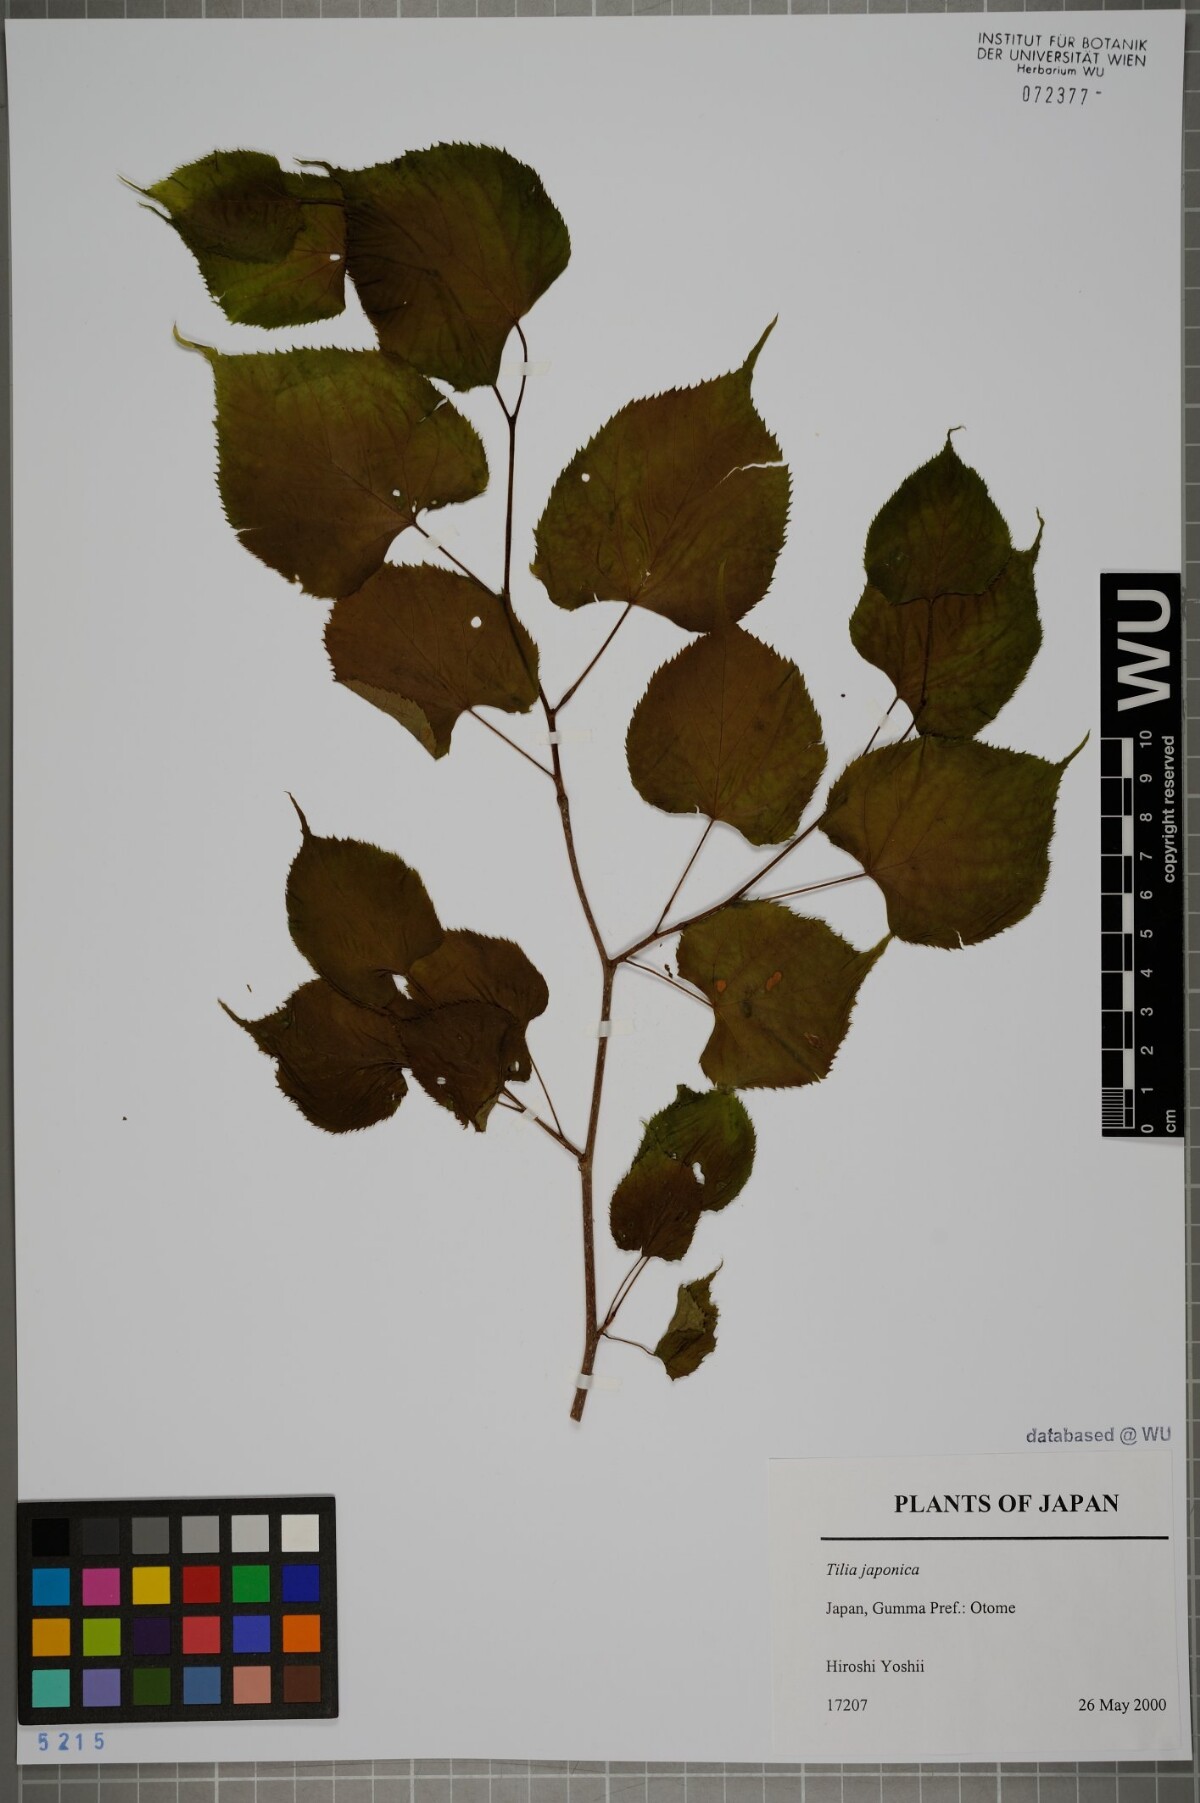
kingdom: Plantae
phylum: Tracheophyta
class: Magnoliopsida
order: Malvales
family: Malvaceae
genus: Tilia
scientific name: Tilia japonica
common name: Japanese lime
